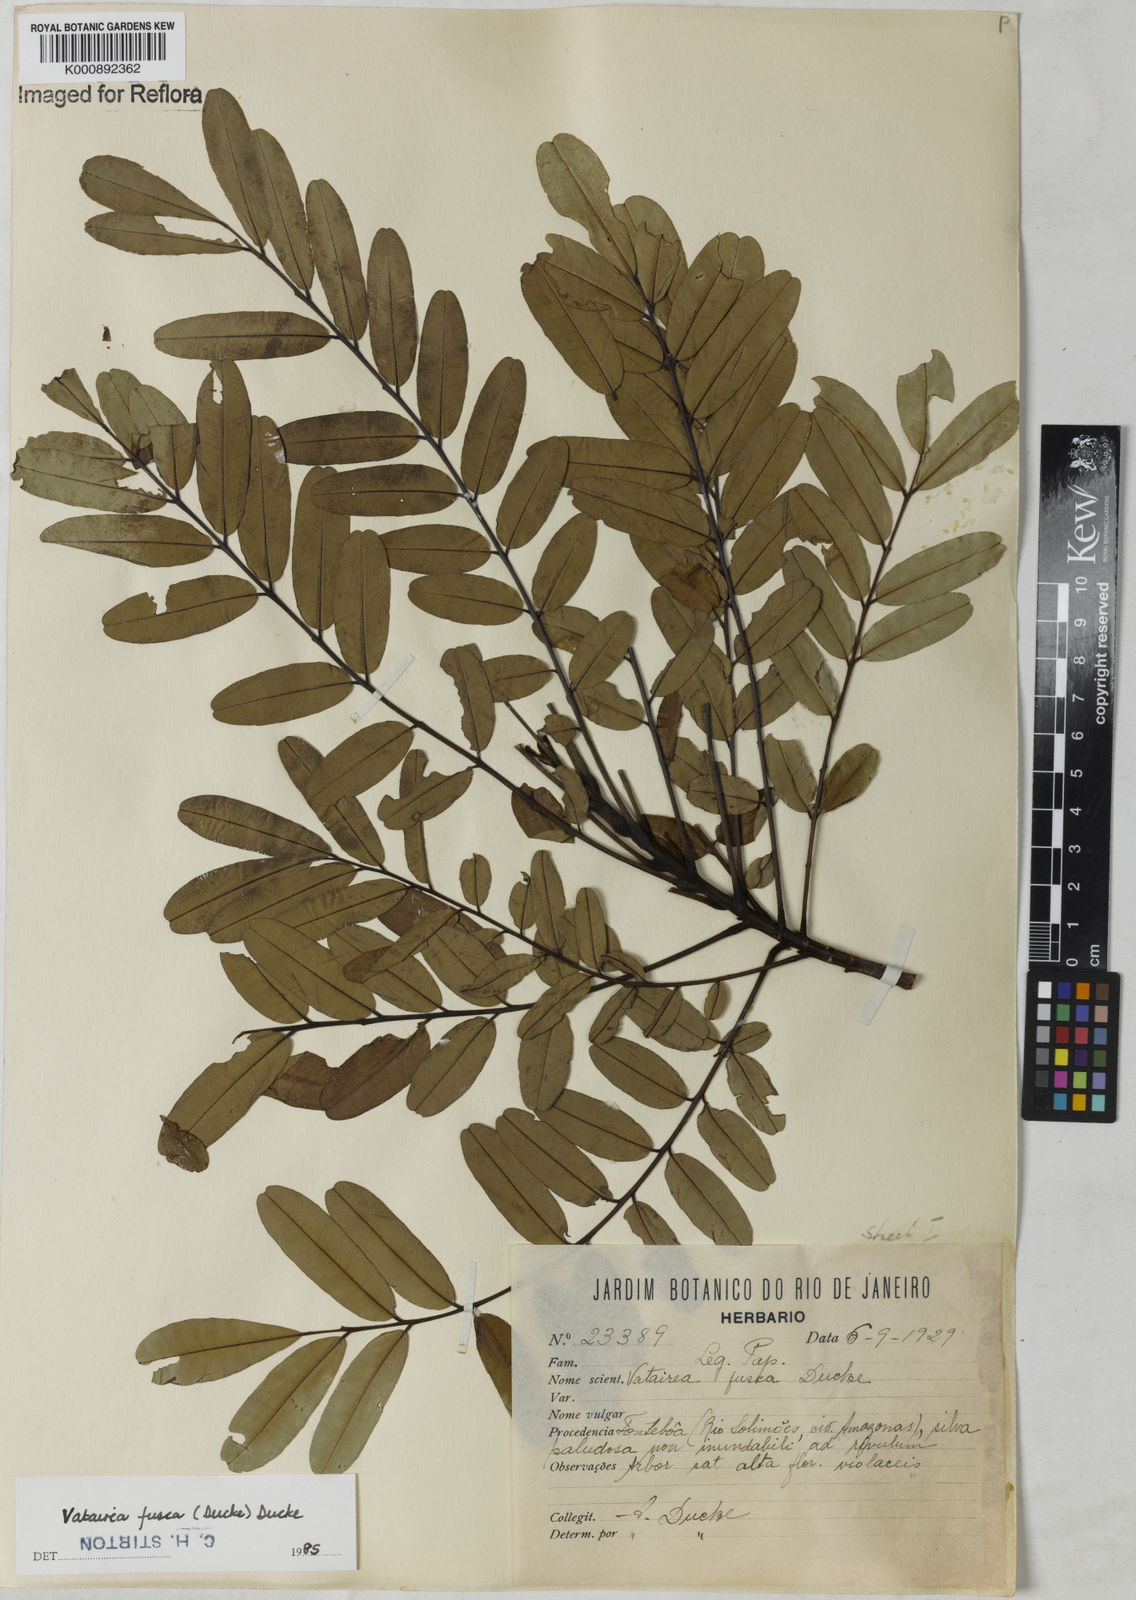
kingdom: Plantae
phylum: Tracheophyta
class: Magnoliopsida
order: Fabales
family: Fabaceae
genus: Vatairea
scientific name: Vatairea fusca
